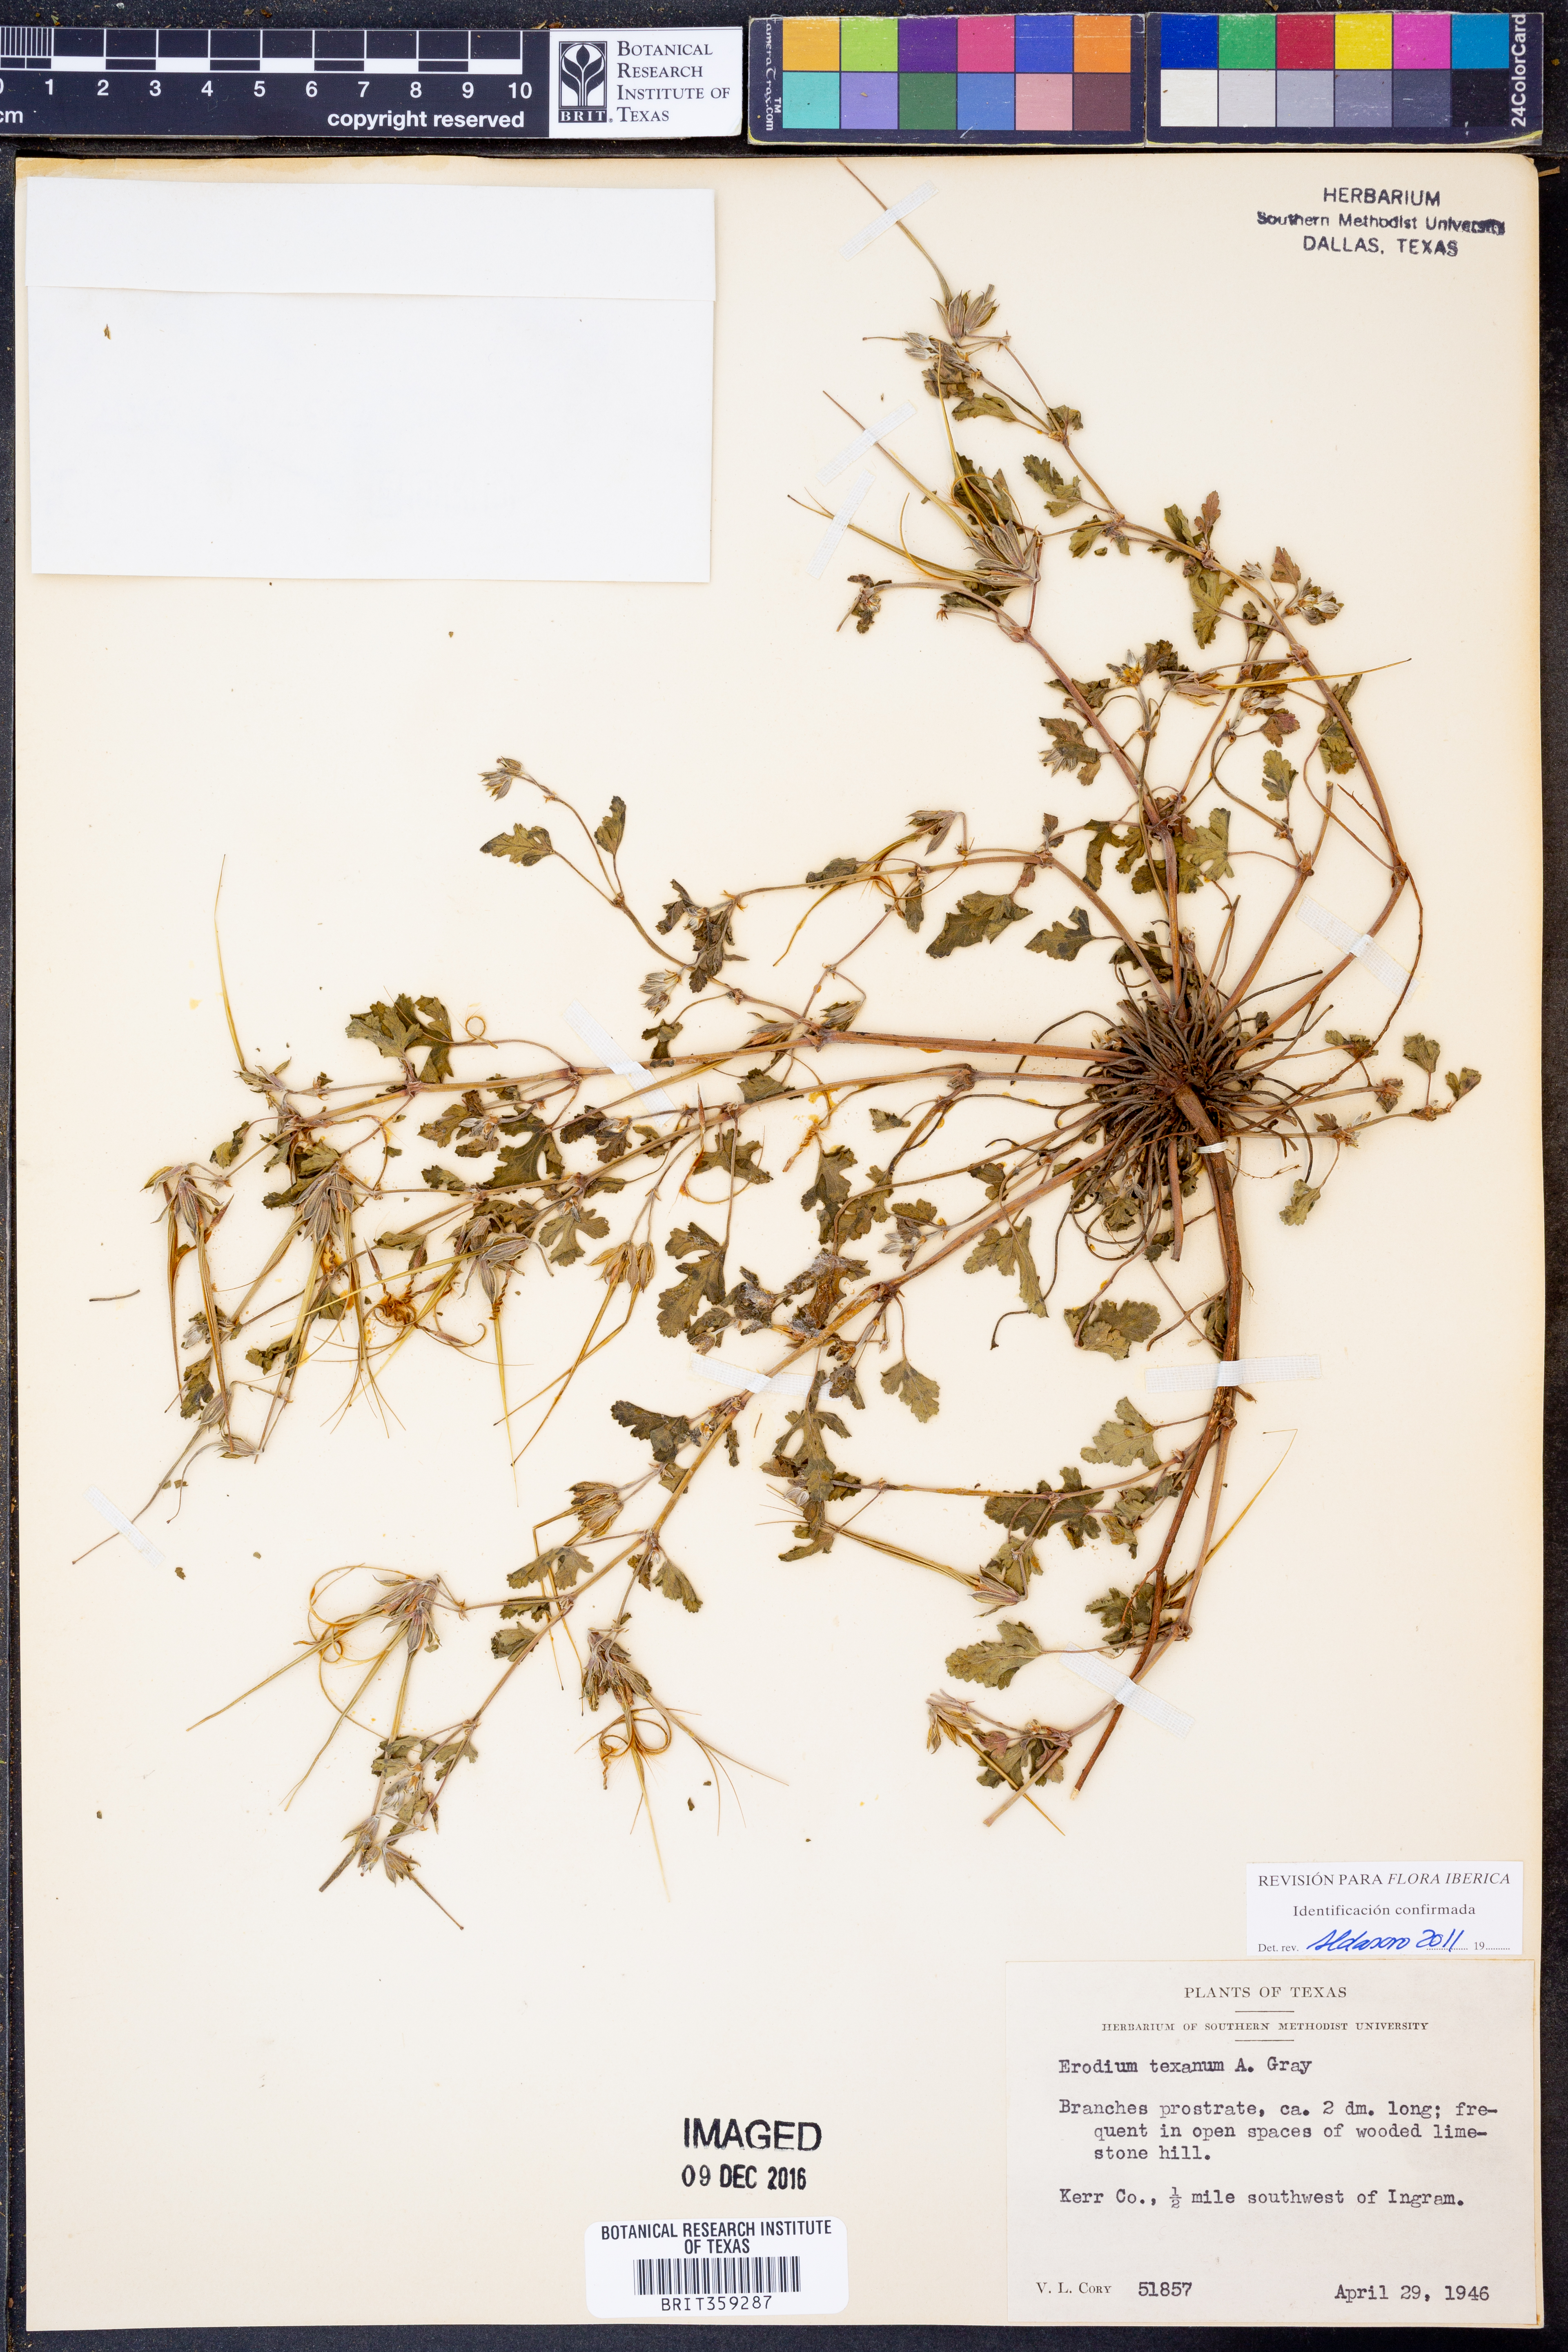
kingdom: Plantae
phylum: Tracheophyta
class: Magnoliopsida
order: Geraniales
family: Geraniaceae
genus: Erodium
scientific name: Erodium texanum
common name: Texas stork's-bill
